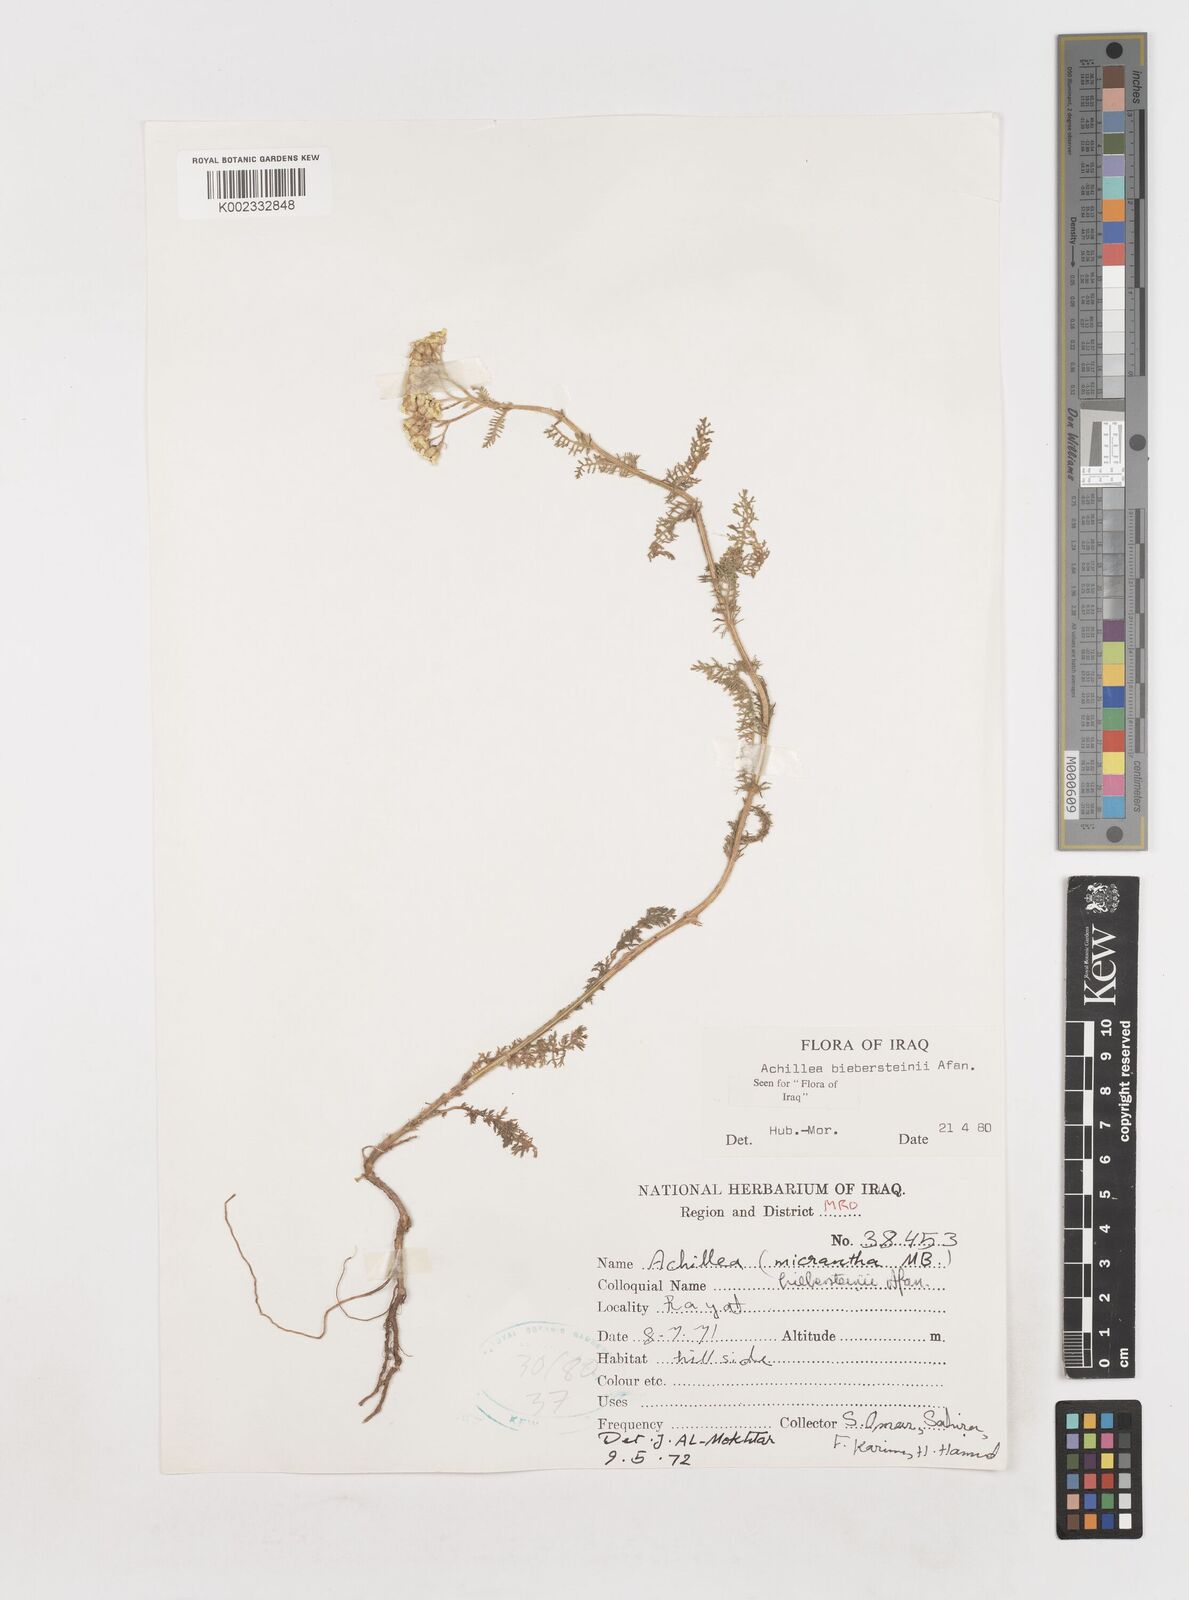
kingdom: Plantae
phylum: Tracheophyta
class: Magnoliopsida
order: Asterales
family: Asteraceae
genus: Achillea
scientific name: Achillea arabica
